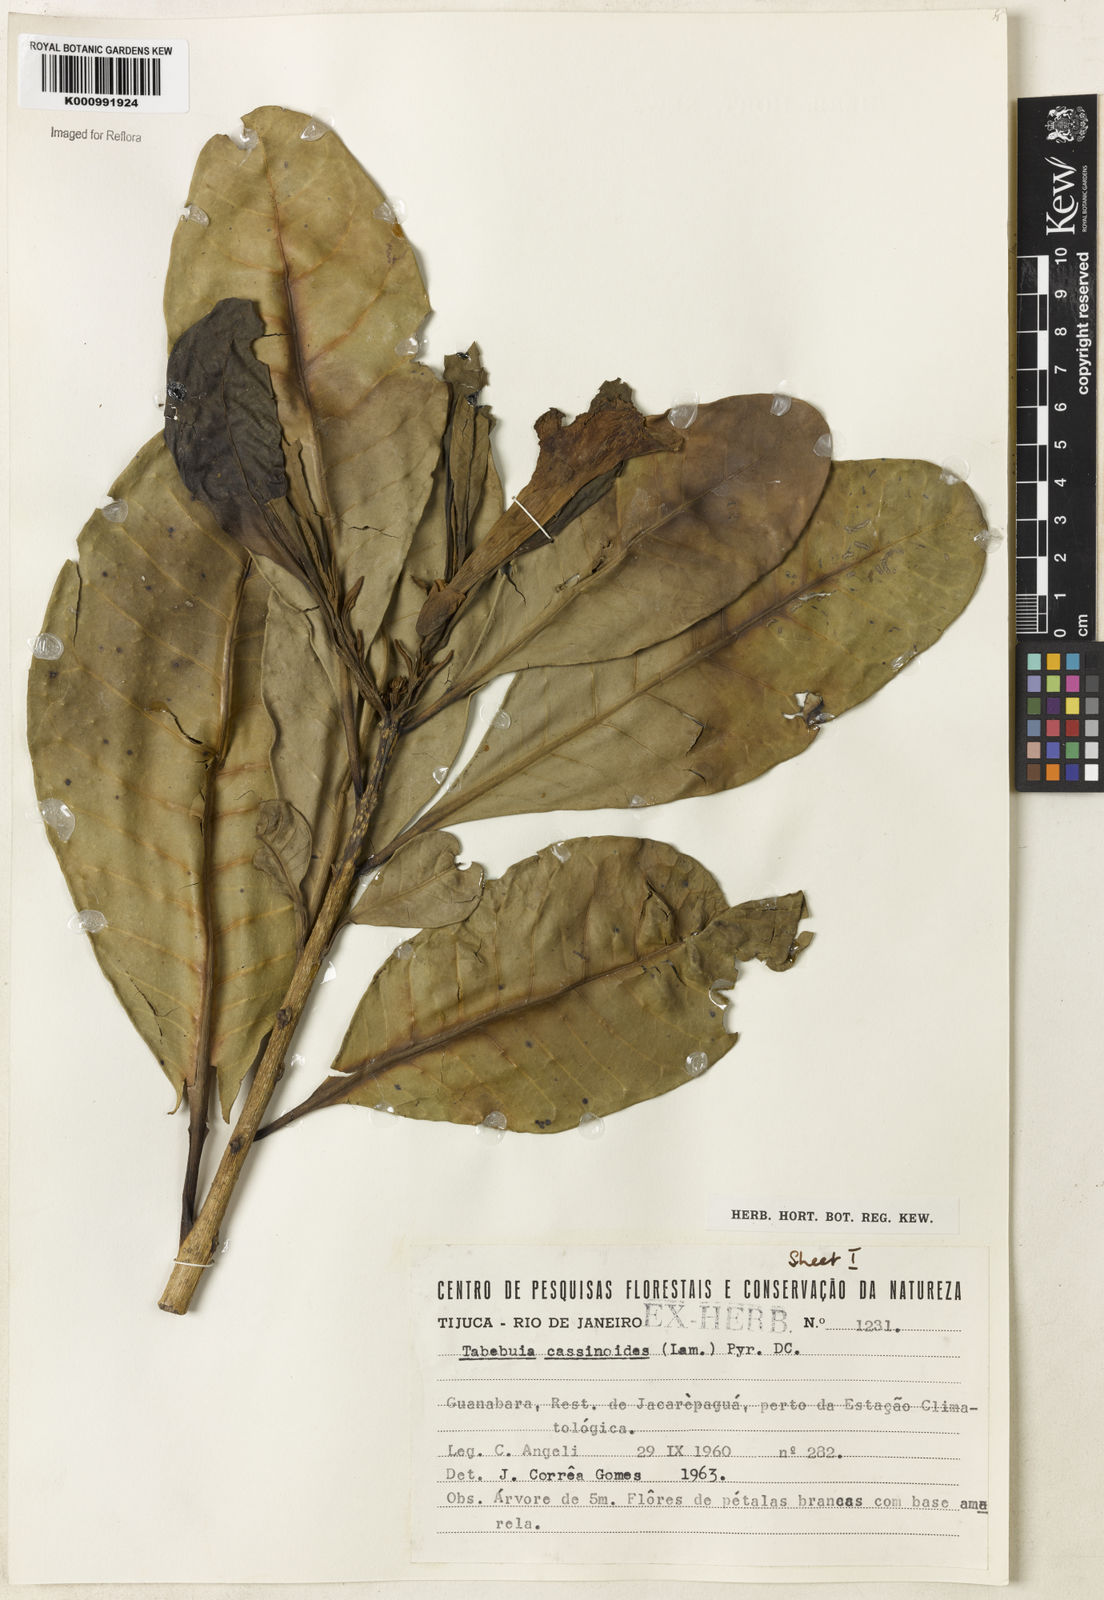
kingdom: Plantae
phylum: Tracheophyta
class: Magnoliopsida
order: Lamiales
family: Bignoniaceae
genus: Tabebuia
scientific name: Tabebuia cassinoides
